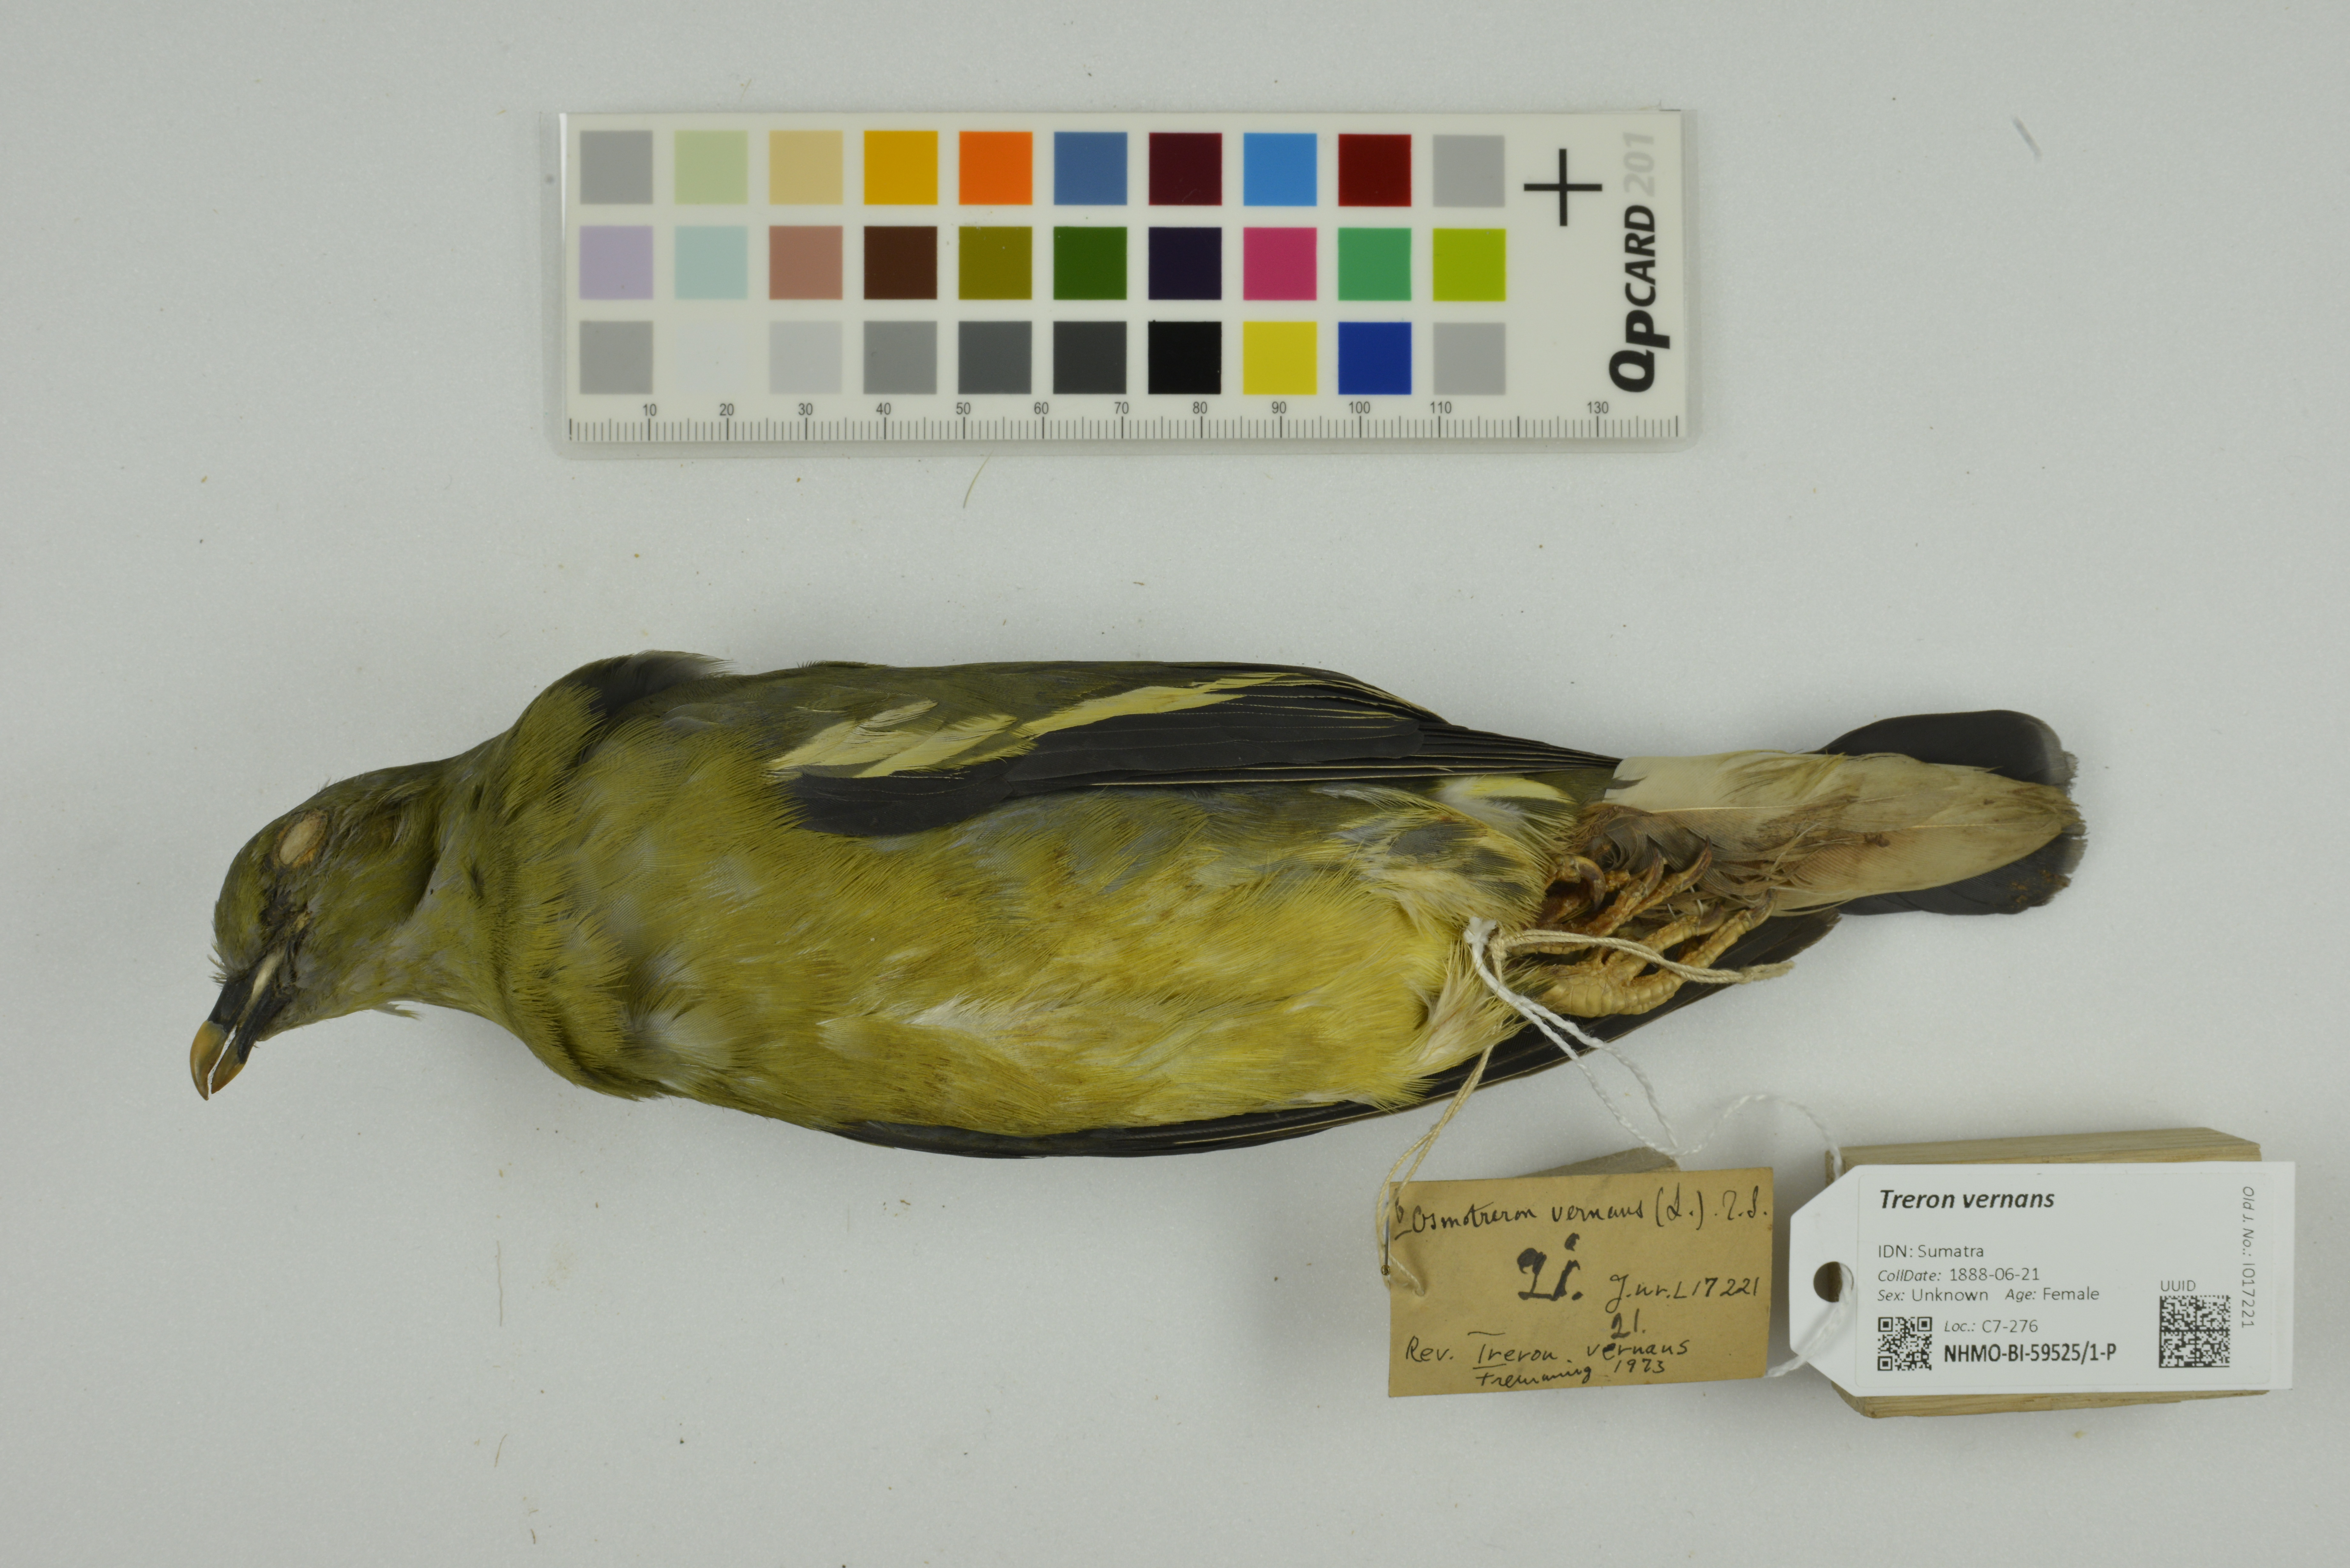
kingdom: Animalia
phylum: Chordata
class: Aves
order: Columbiformes
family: Columbidae
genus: Treron
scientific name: Treron vernans
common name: Pink-necked green pigeon
